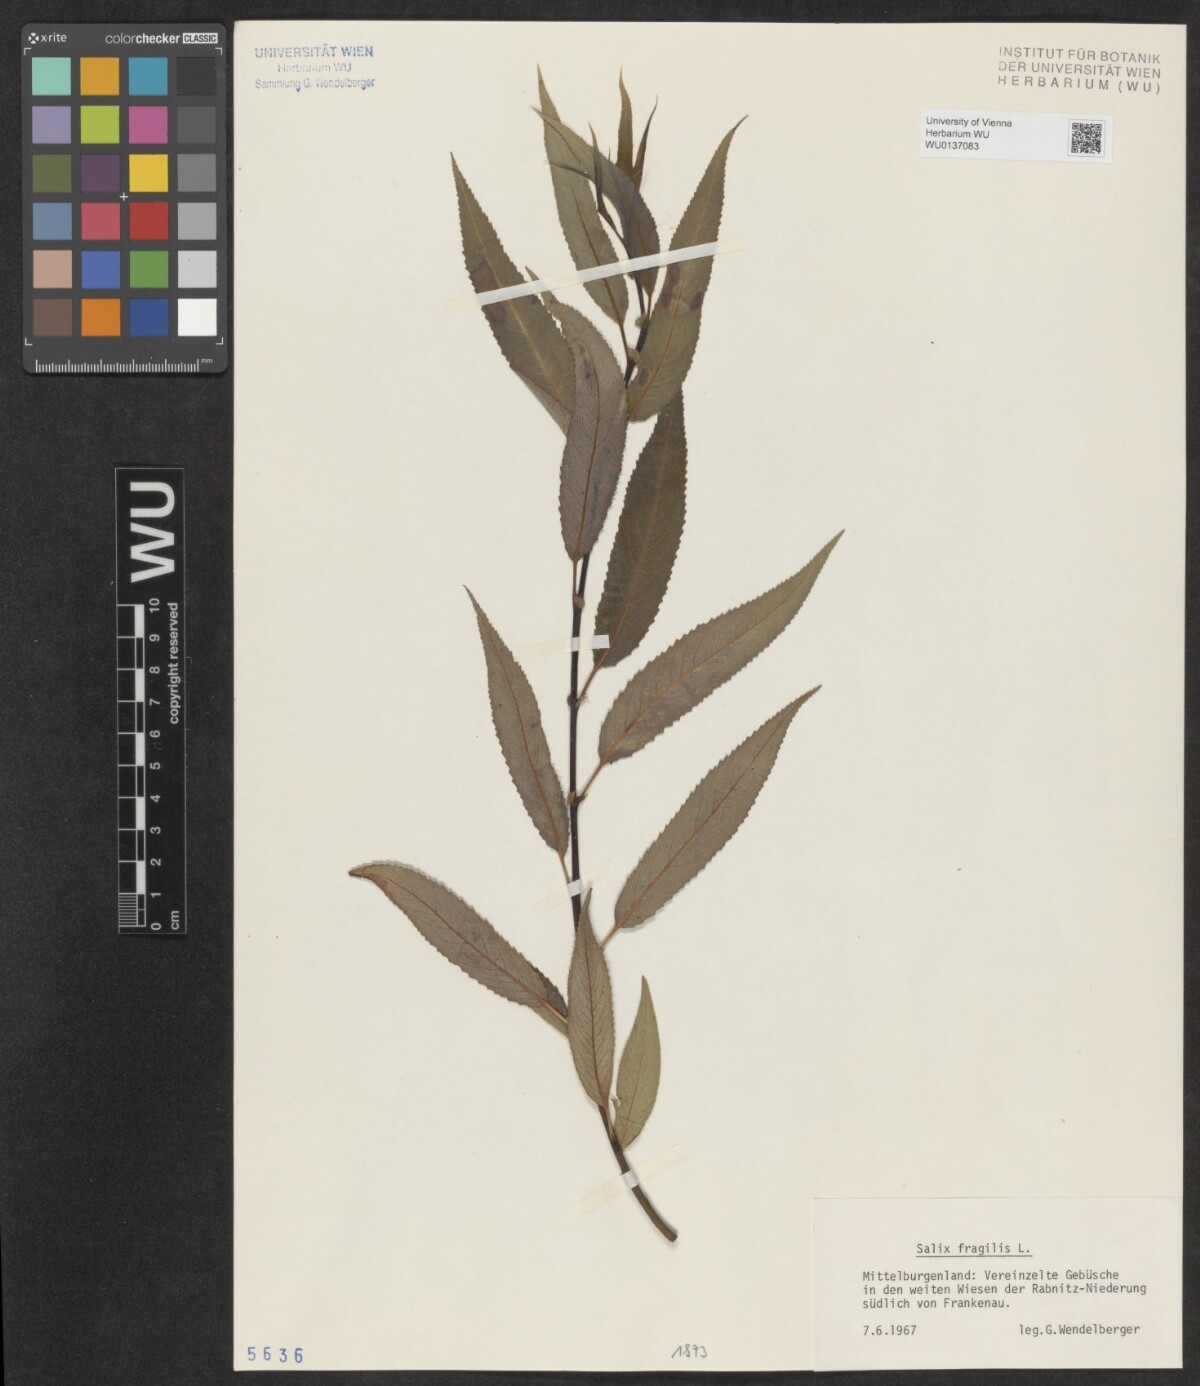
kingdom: Plantae
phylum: Tracheophyta
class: Magnoliopsida
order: Malpighiales
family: Salicaceae
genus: Salix
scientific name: Salix fragilis
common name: Crack willow
